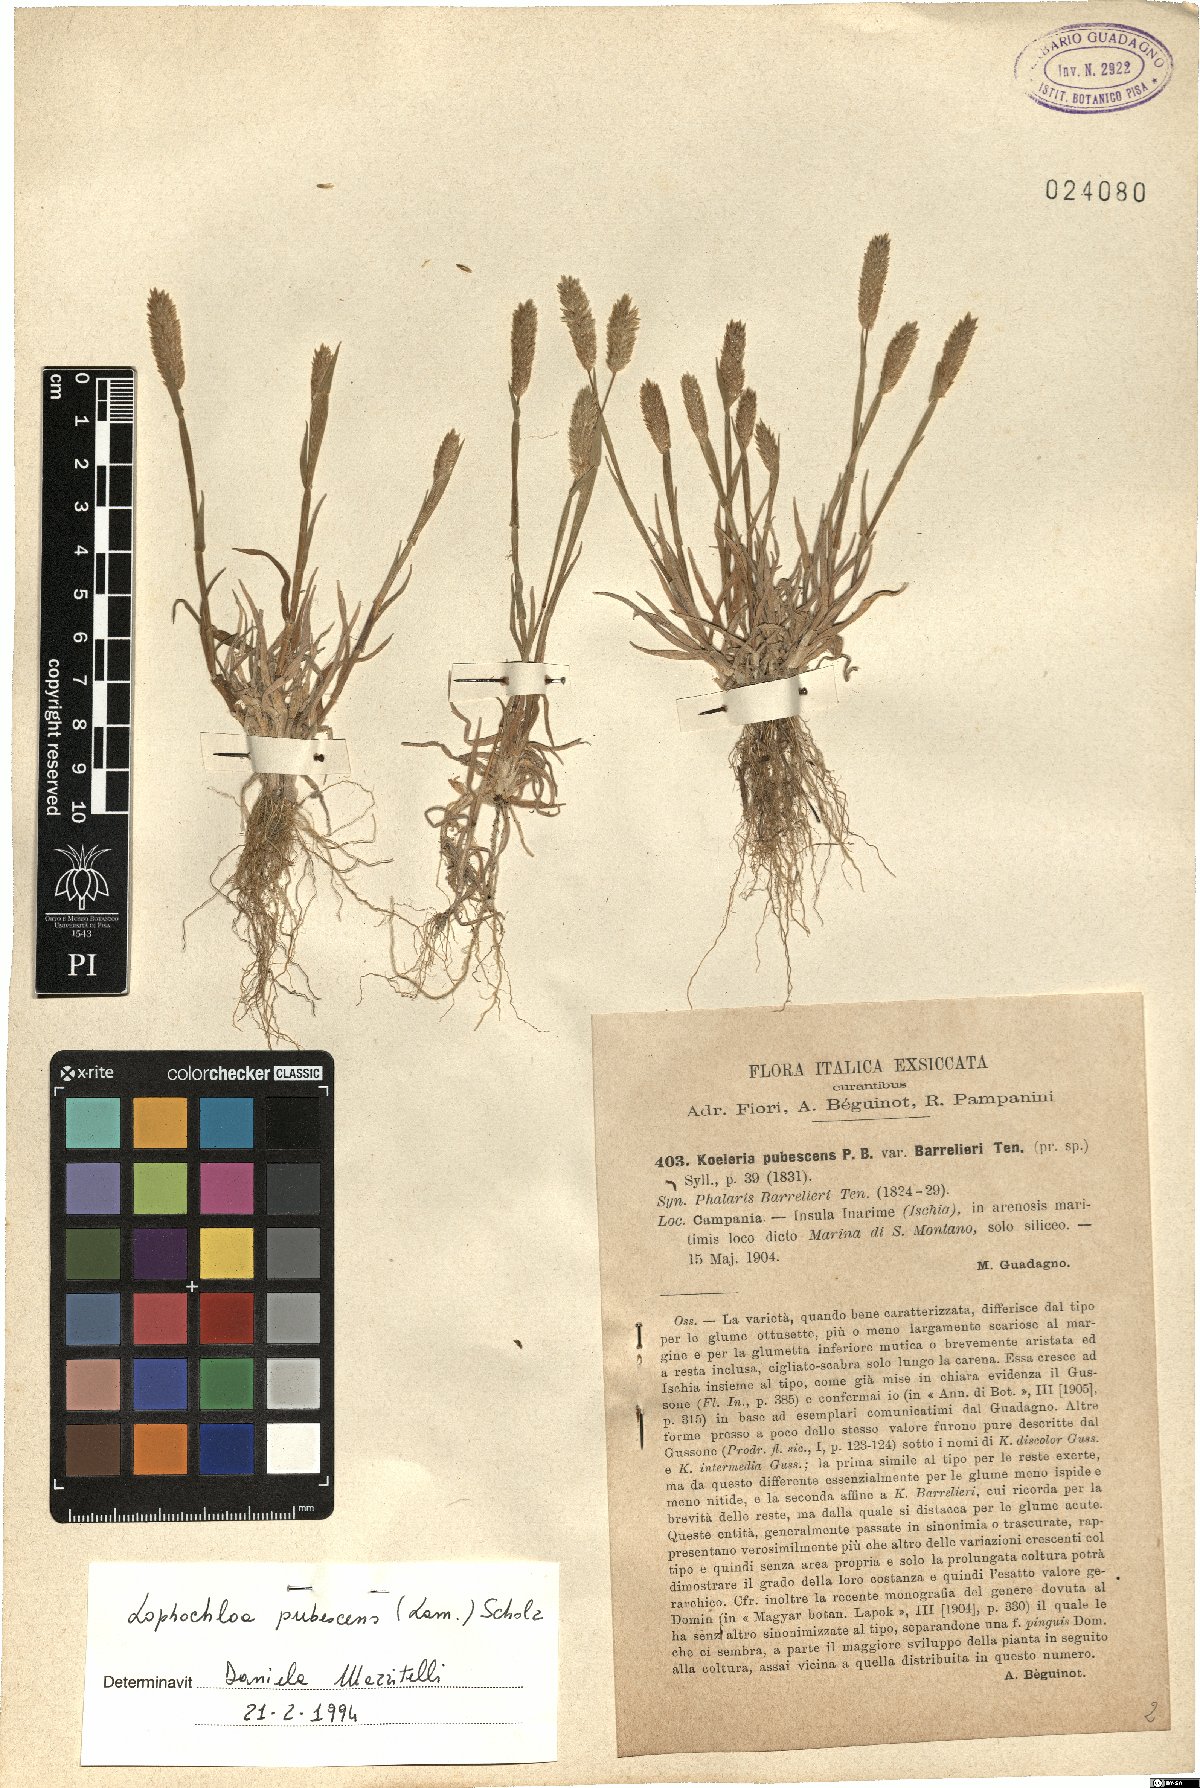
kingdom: Plantae
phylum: Tracheophyta
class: Liliopsida
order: Poales
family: Poaceae
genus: Rostraria
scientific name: Rostraria litorea
